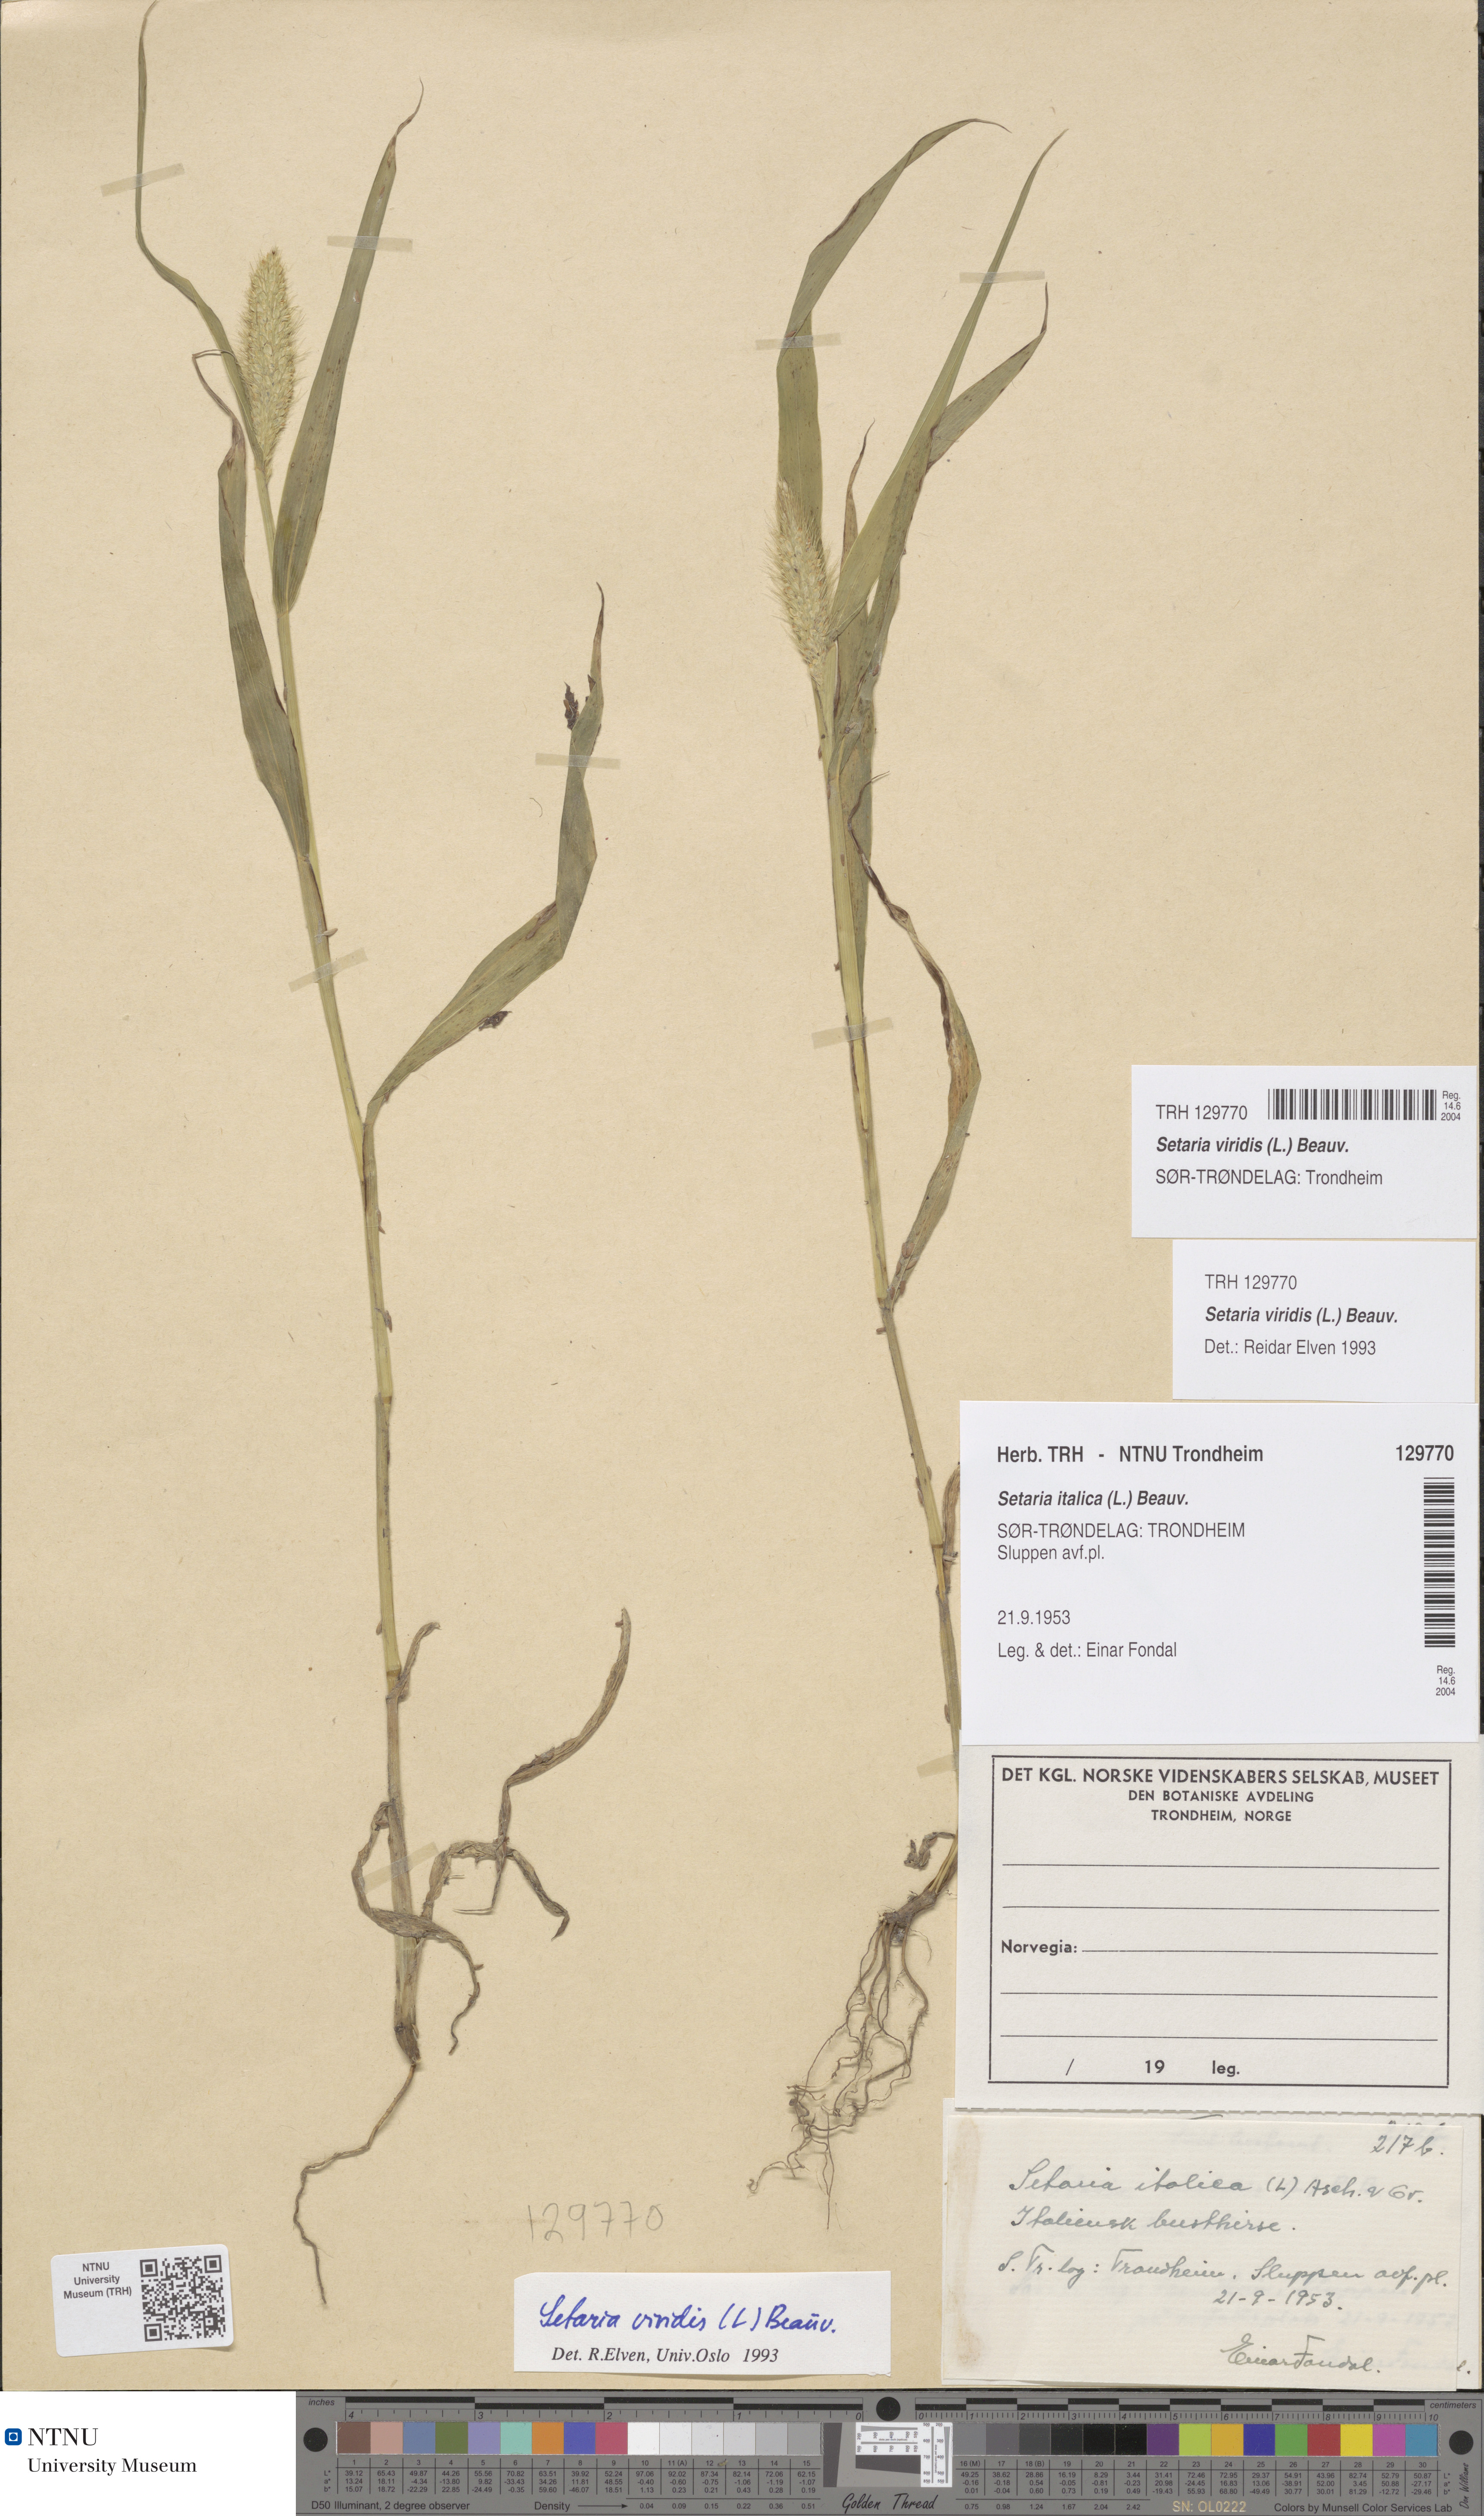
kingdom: Plantae
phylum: Tracheophyta
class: Liliopsida
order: Poales
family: Poaceae
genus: Setaria
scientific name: Setaria viridis
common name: Green bristlegrass
